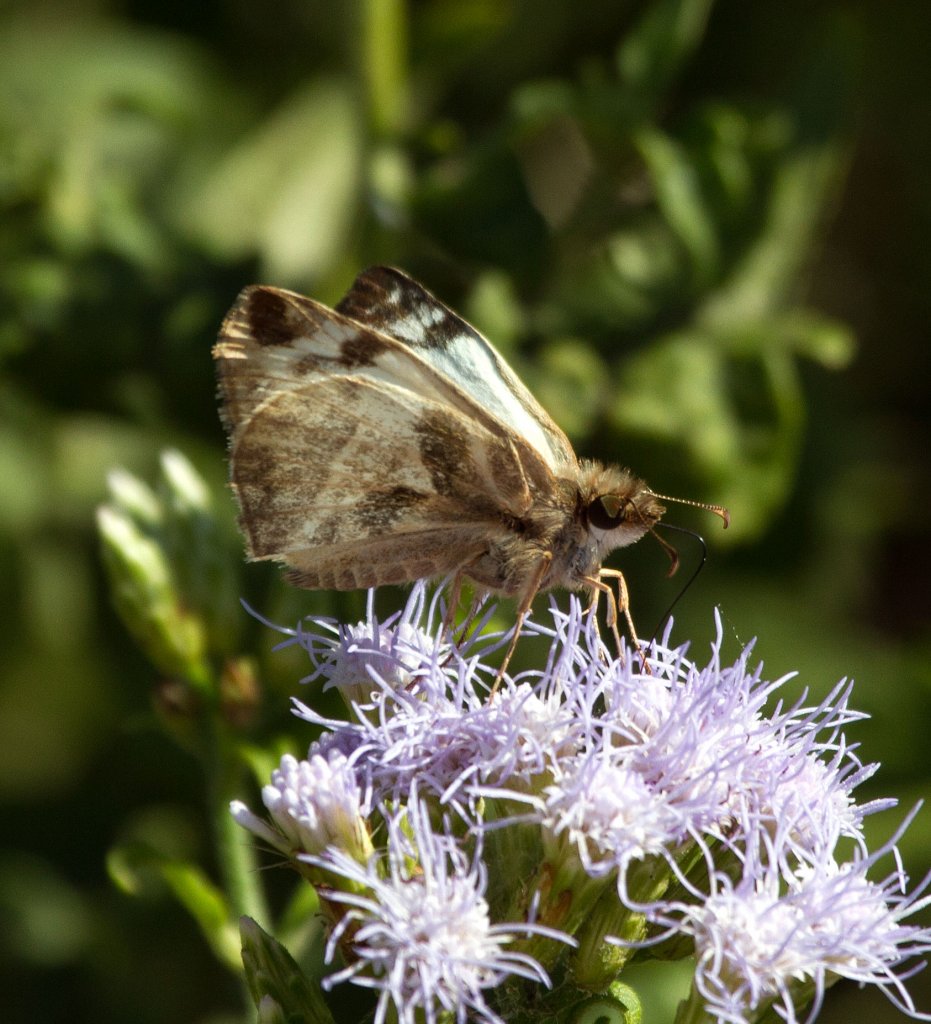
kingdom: Animalia
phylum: Arthropoda
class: Insecta
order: Lepidoptera
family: Hesperiidae
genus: Heliopetes
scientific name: Heliopetes laviana
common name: Laviana White-Skipper
